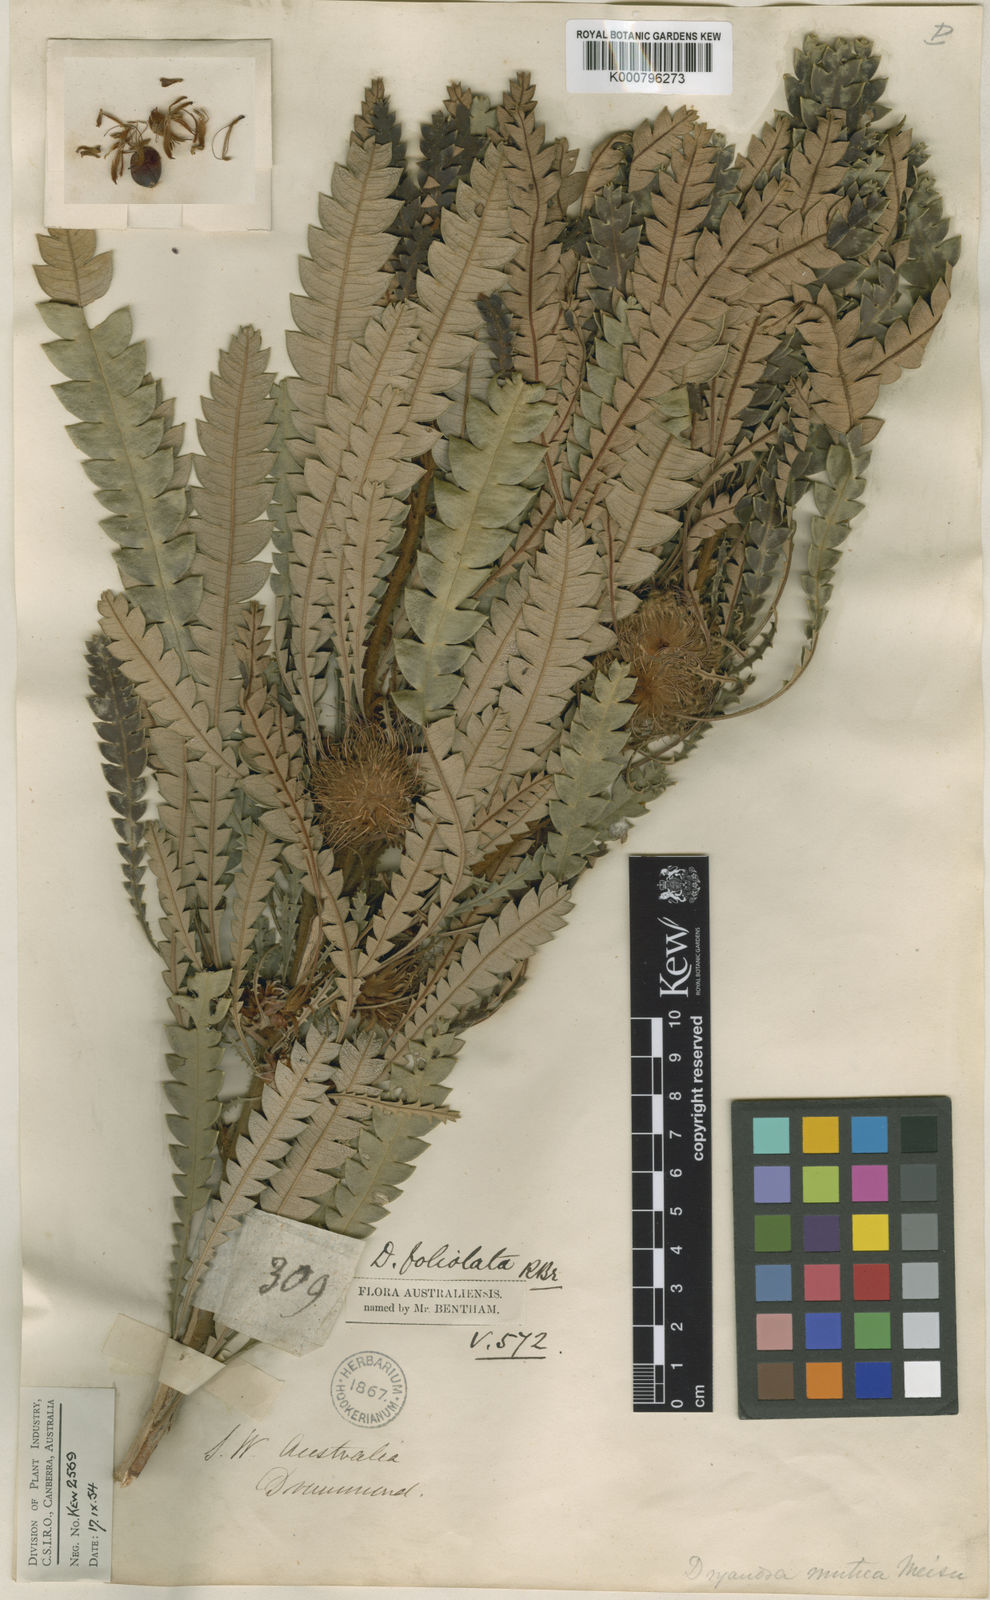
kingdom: Plantae
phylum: Tracheophyta
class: Magnoliopsida
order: Proteales
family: Proteaceae
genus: Banksia
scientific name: Banksia foliolata
